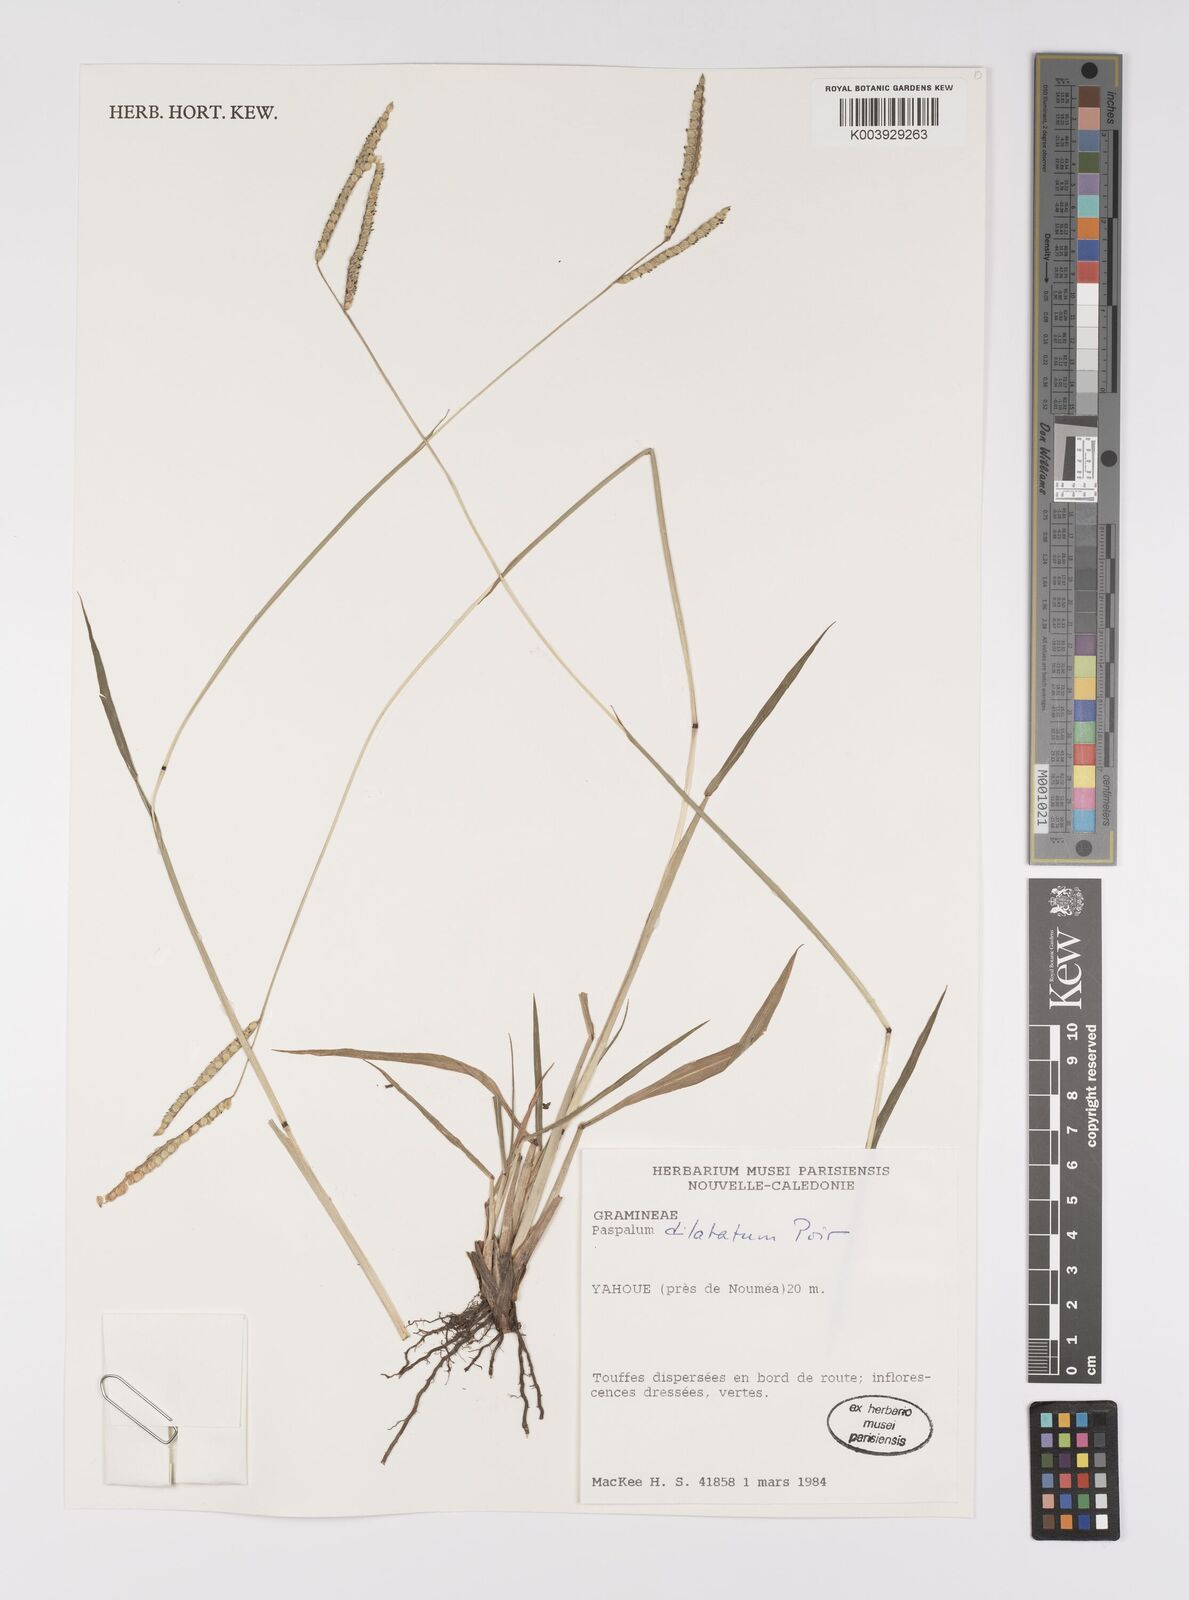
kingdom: Plantae
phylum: Tracheophyta
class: Liliopsida
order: Poales
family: Poaceae
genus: Paspalum
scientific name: Paspalum dilatatum
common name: Dallisgrass
